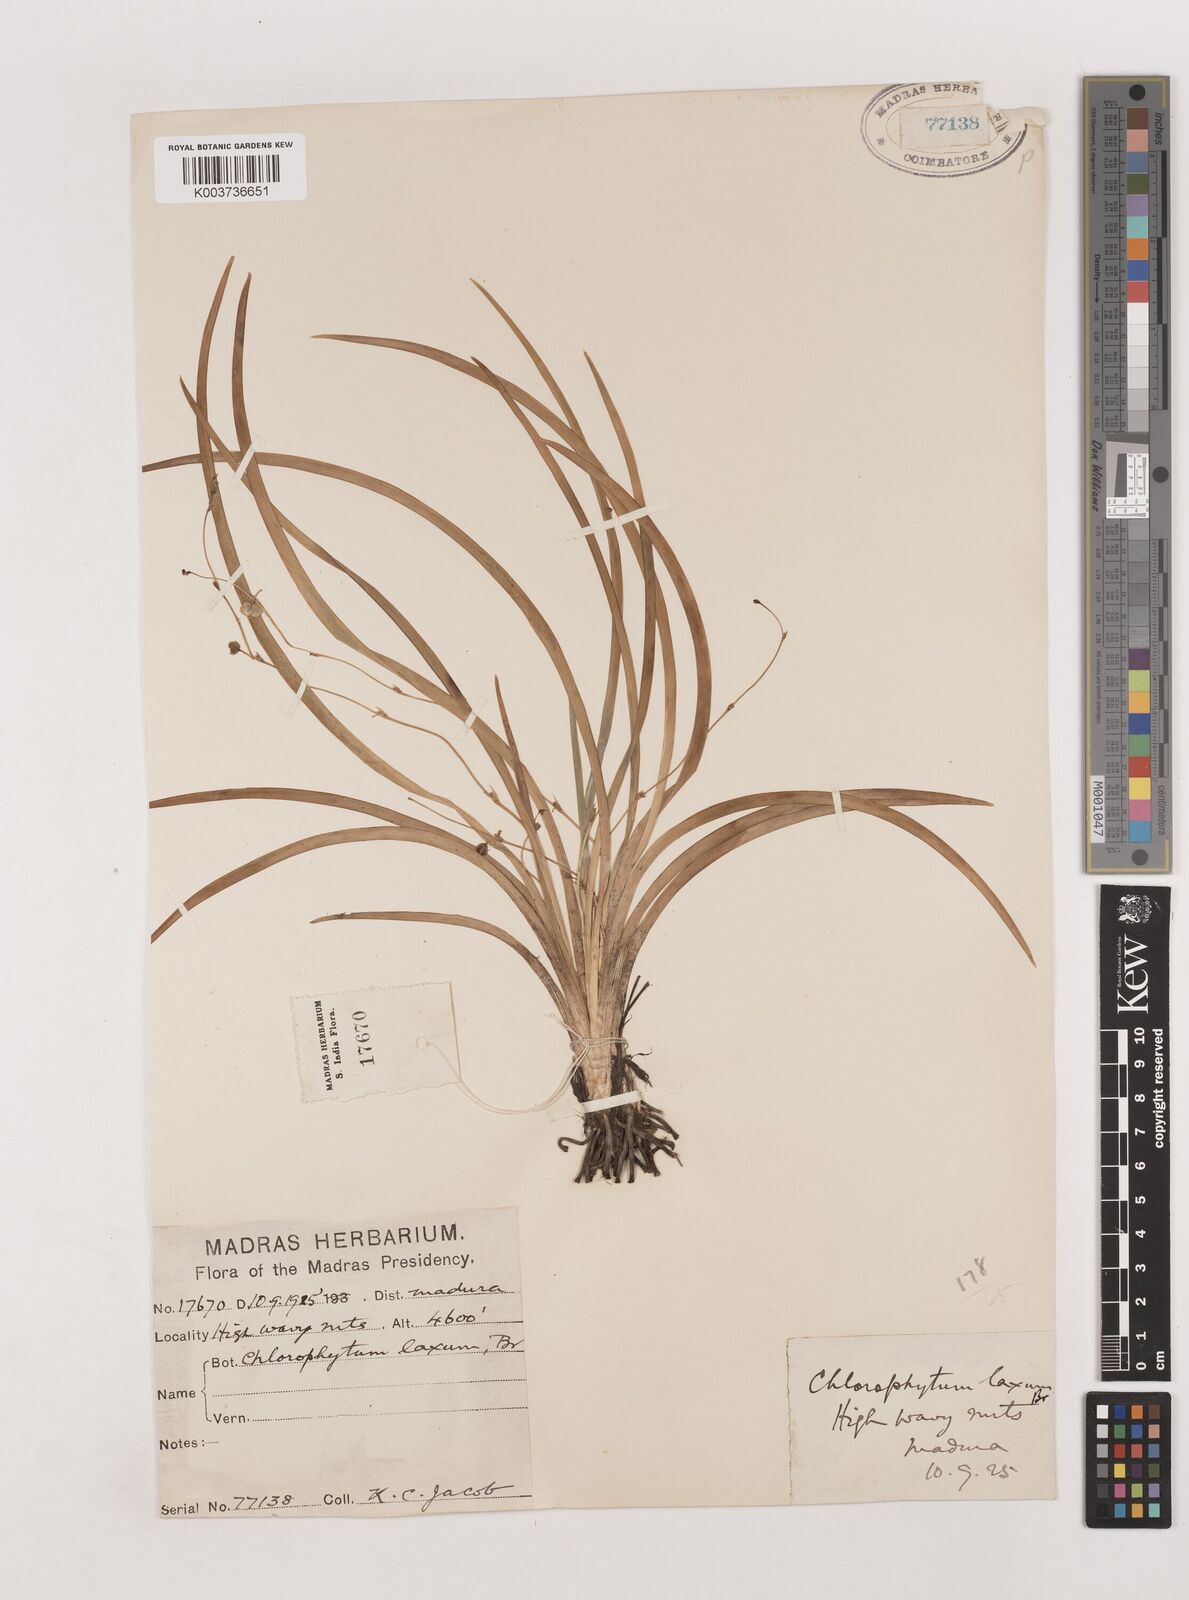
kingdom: Plantae
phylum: Tracheophyta
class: Liliopsida
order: Asparagales
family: Asparagaceae
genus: Chlorophytum
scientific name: Chlorophytum laxum
